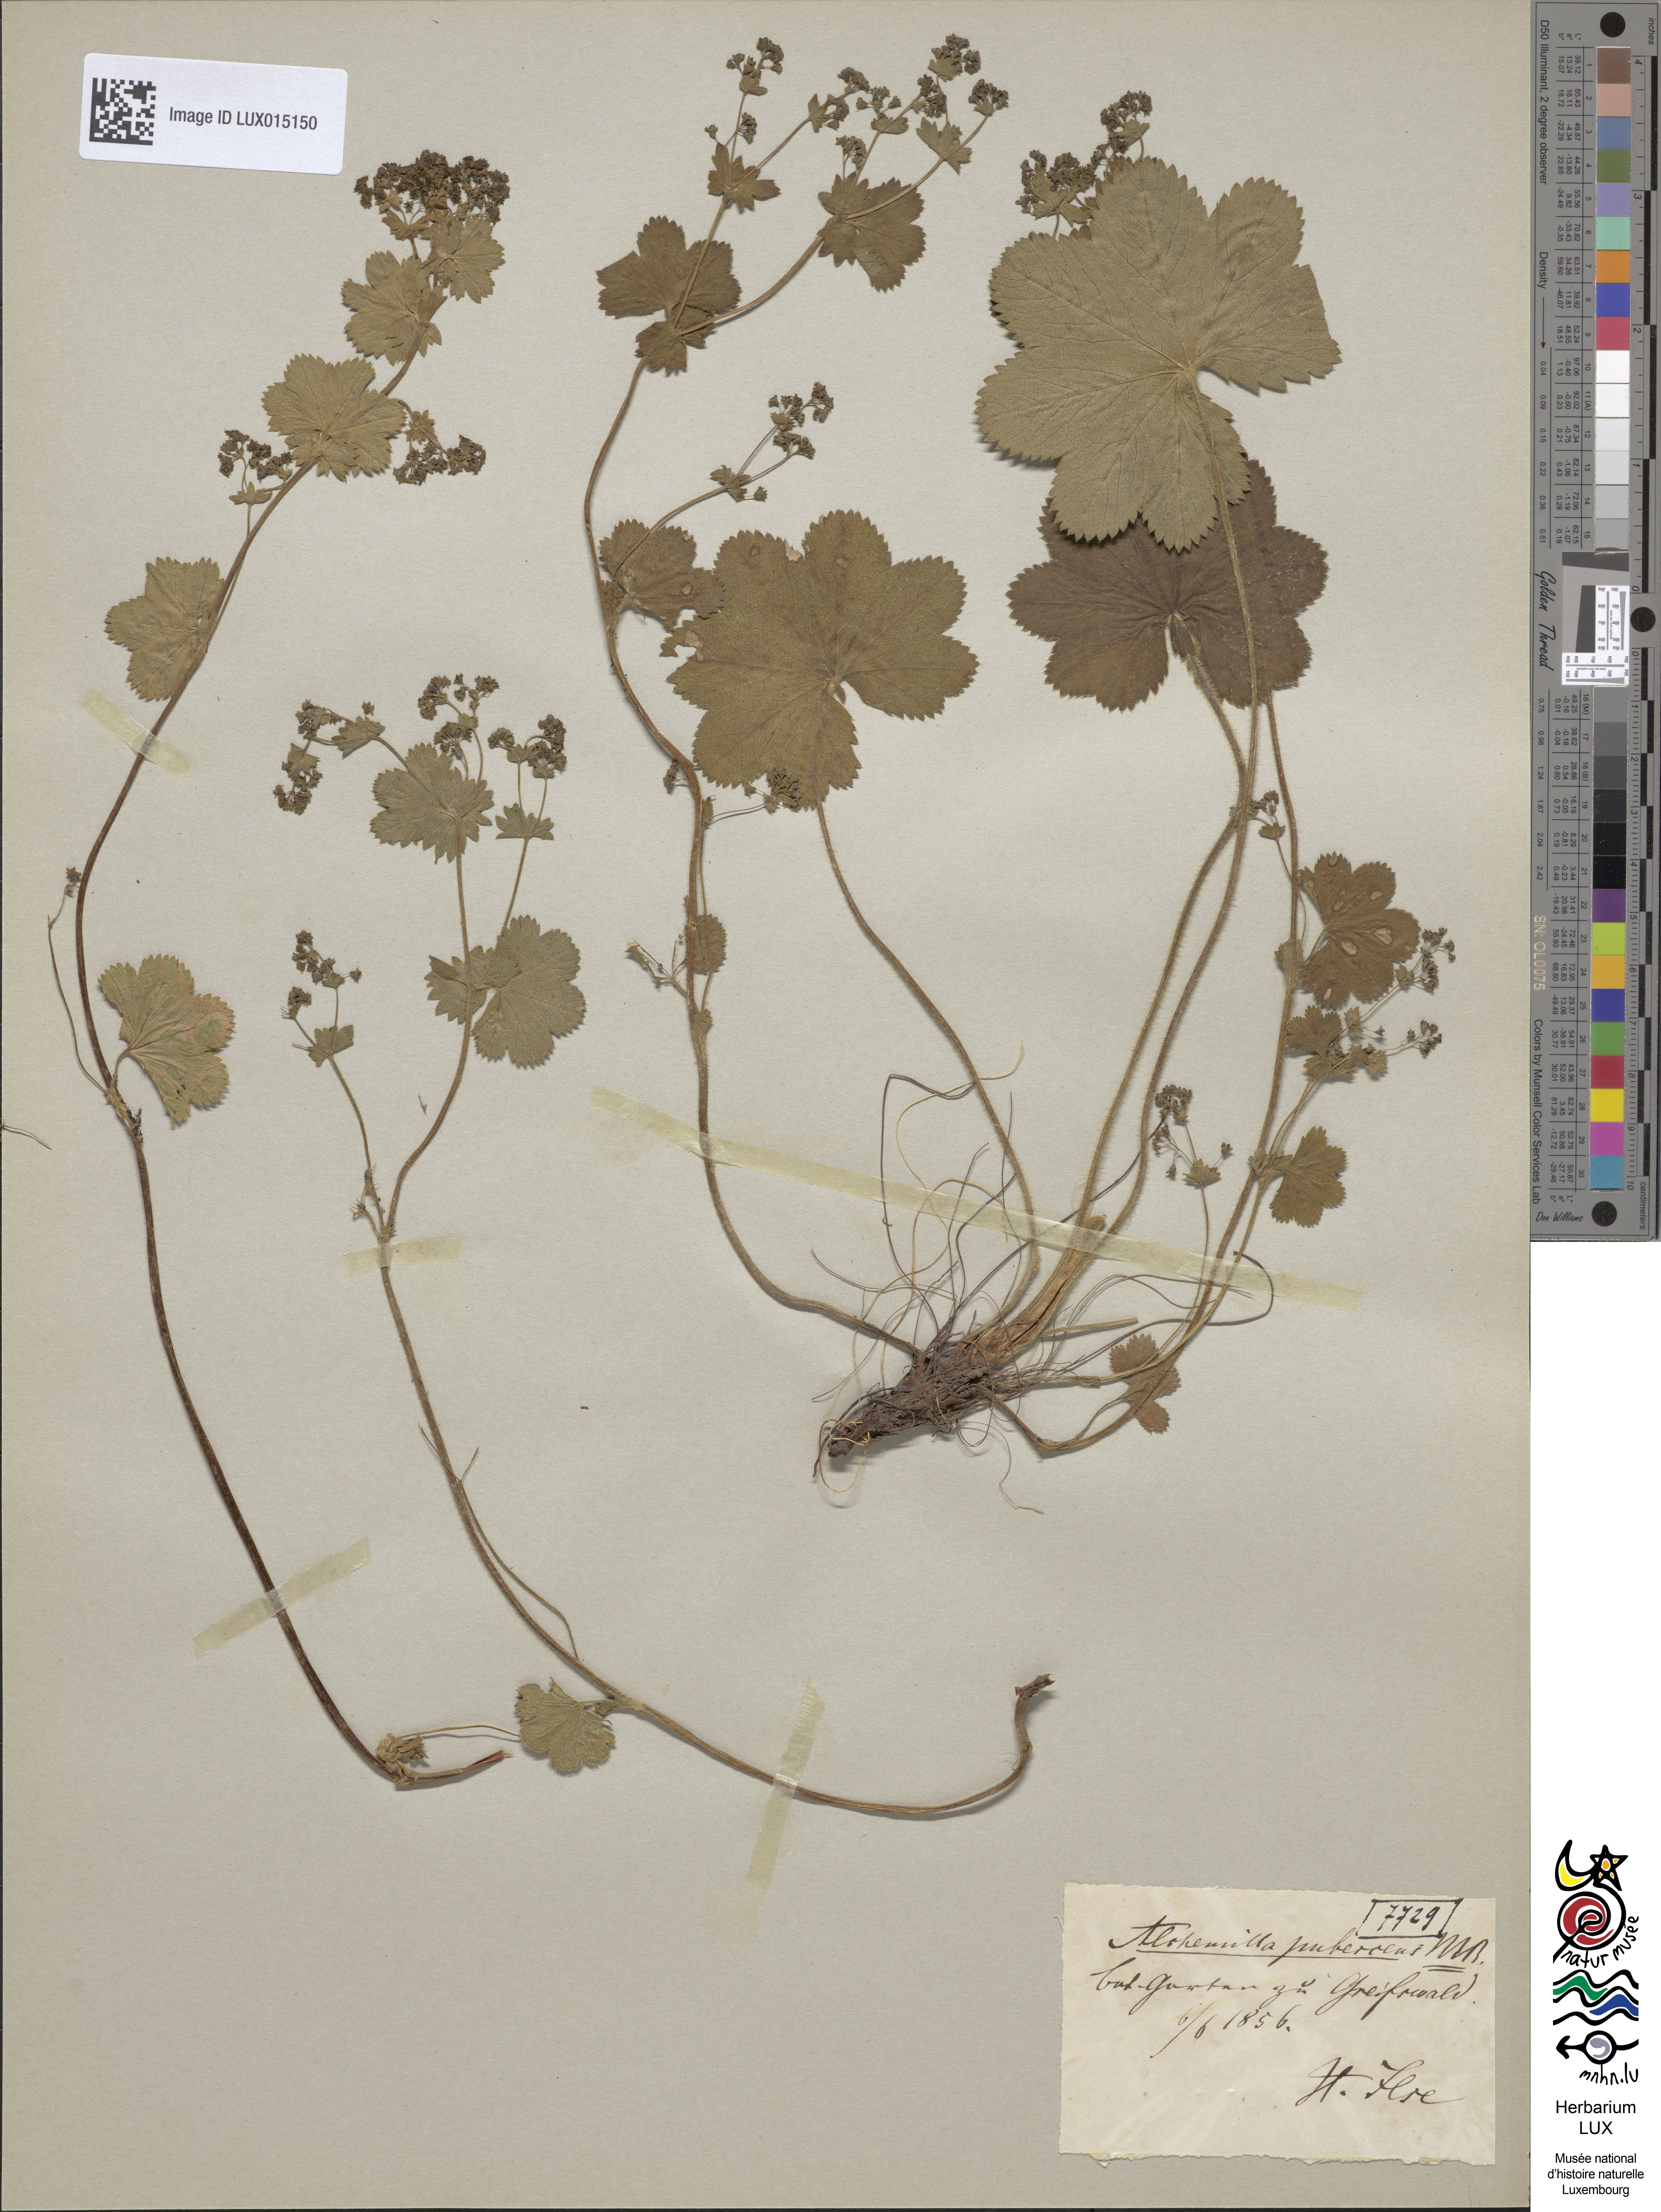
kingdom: Plantae
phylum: Tracheophyta
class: Magnoliopsida
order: Rosales
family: Rosaceae
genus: Alchemilla
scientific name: Alchemilla glaucescens
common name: Silky lady's mantle
